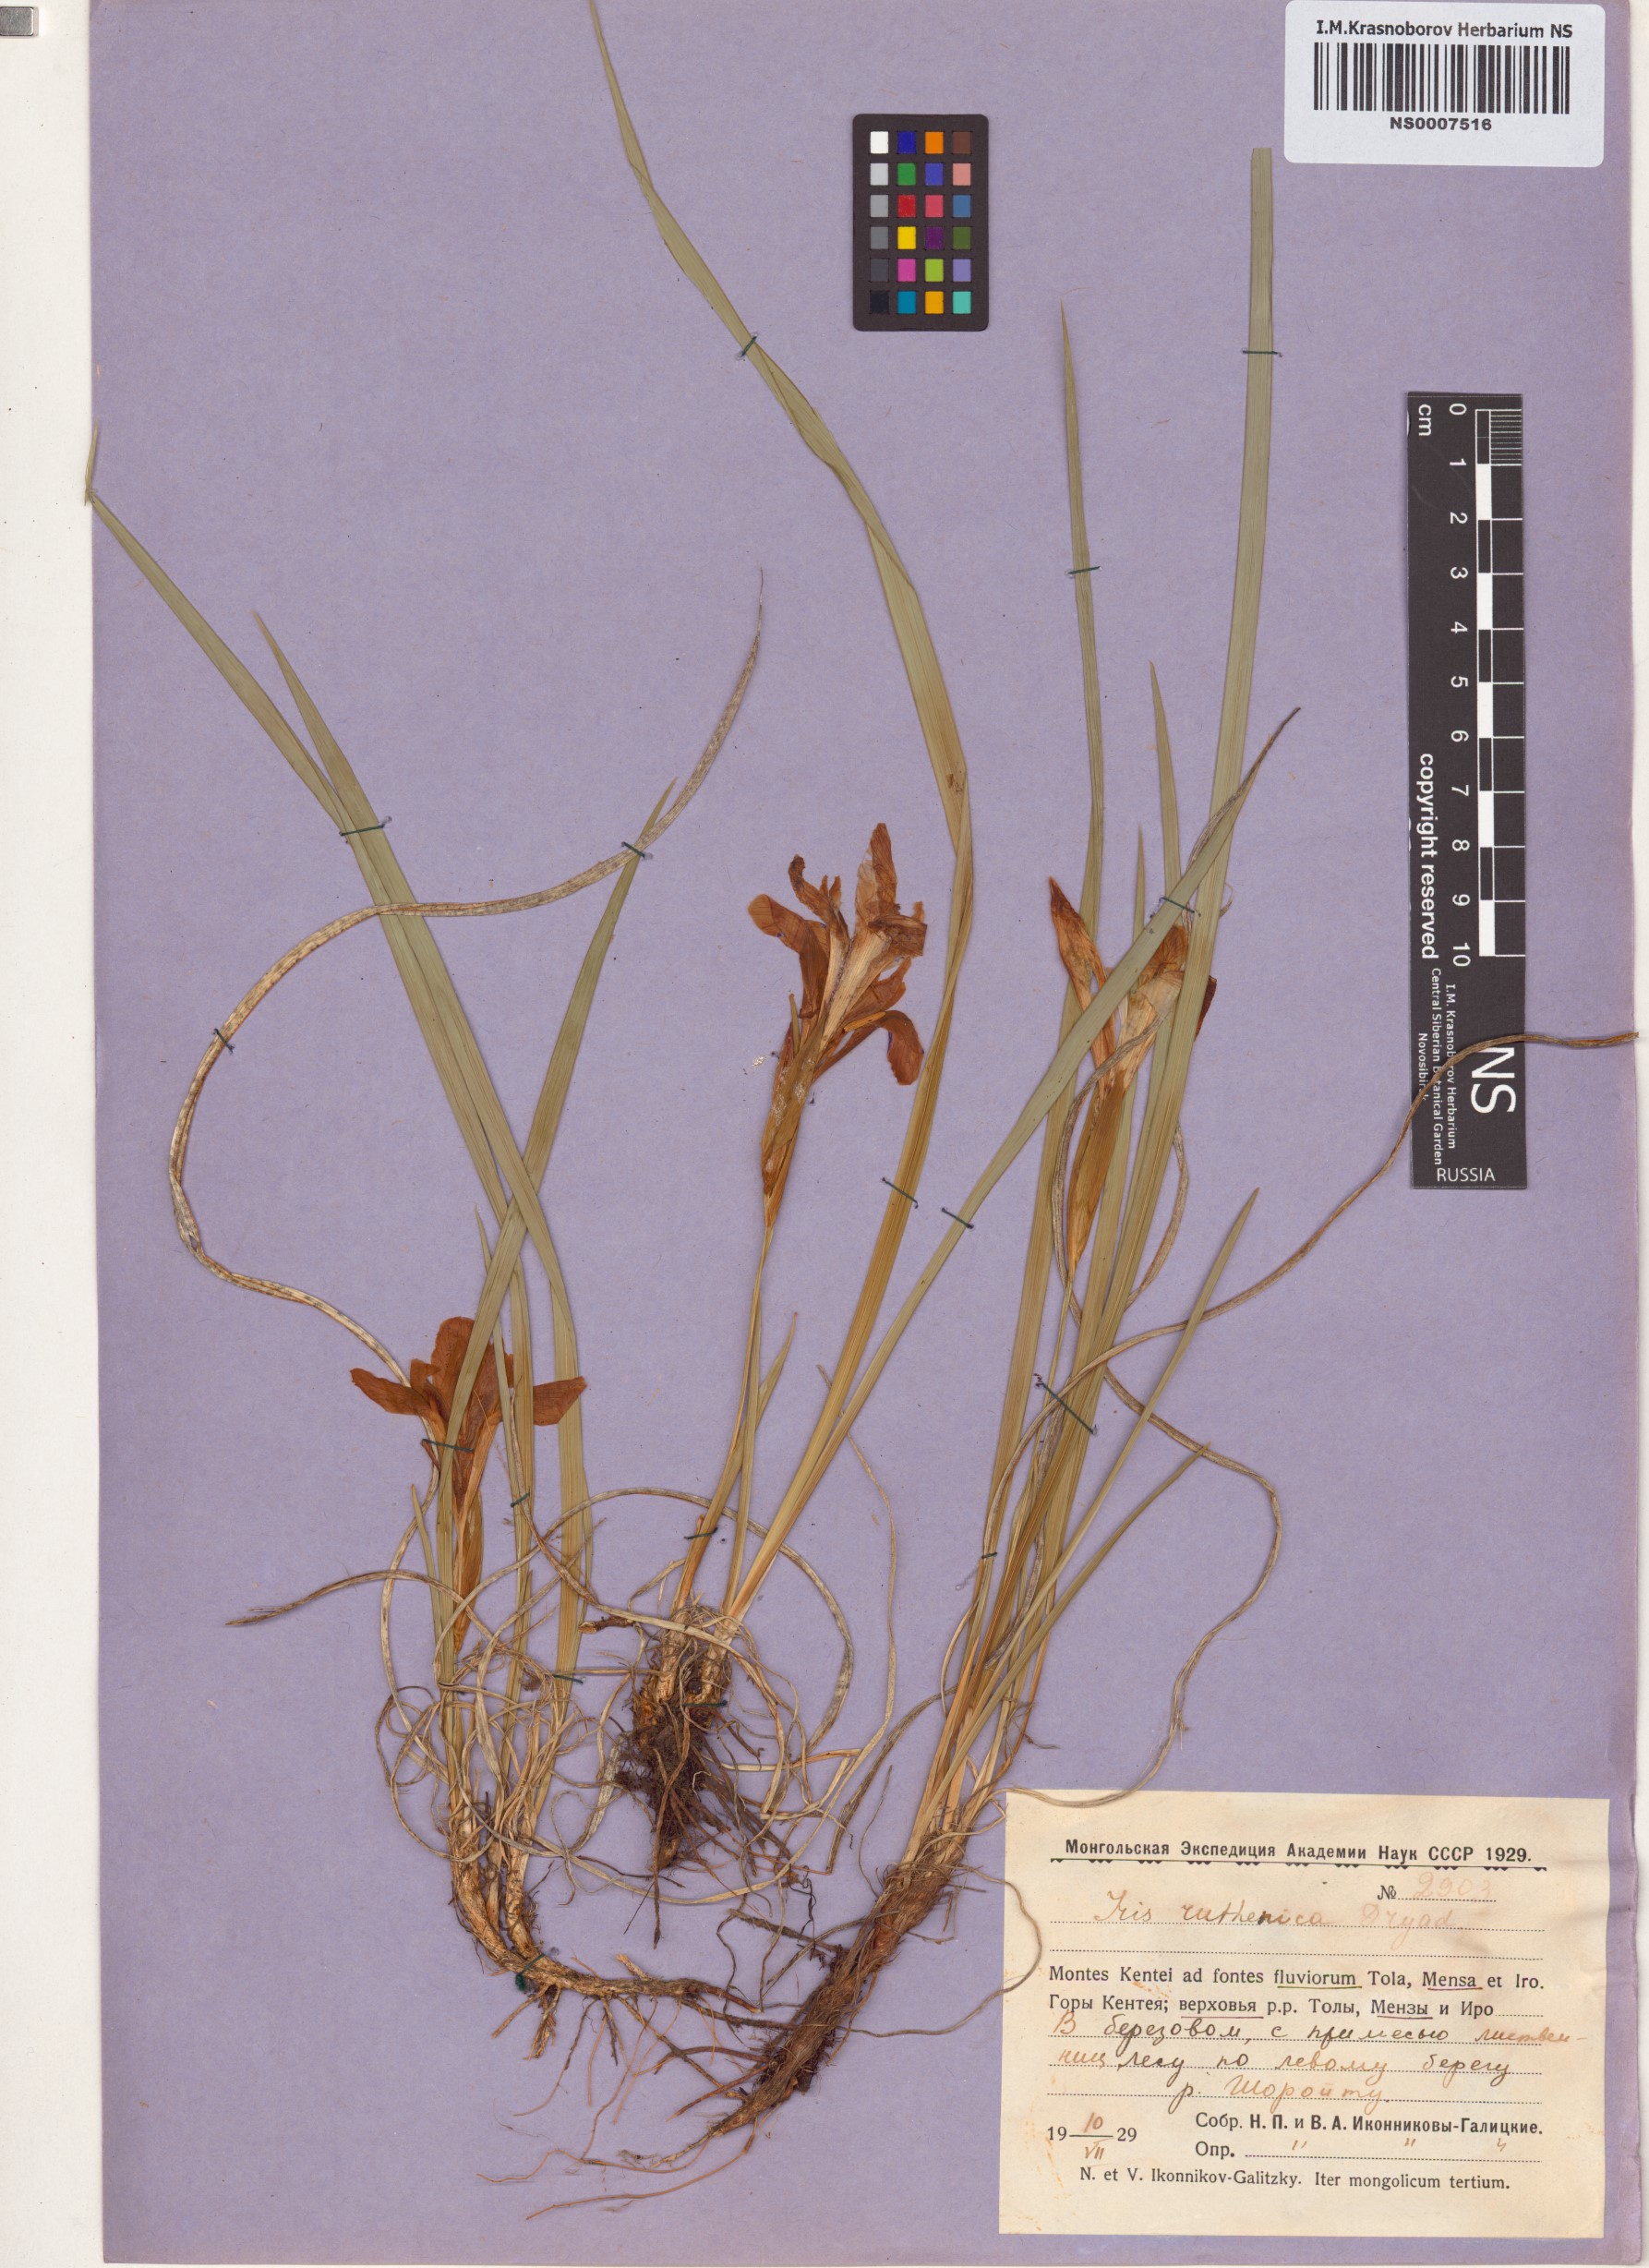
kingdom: Plantae
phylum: Tracheophyta
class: Liliopsida
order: Asparagales
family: Iridaceae
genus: Iris
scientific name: Iris ruthenica
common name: Purple-bract iris
